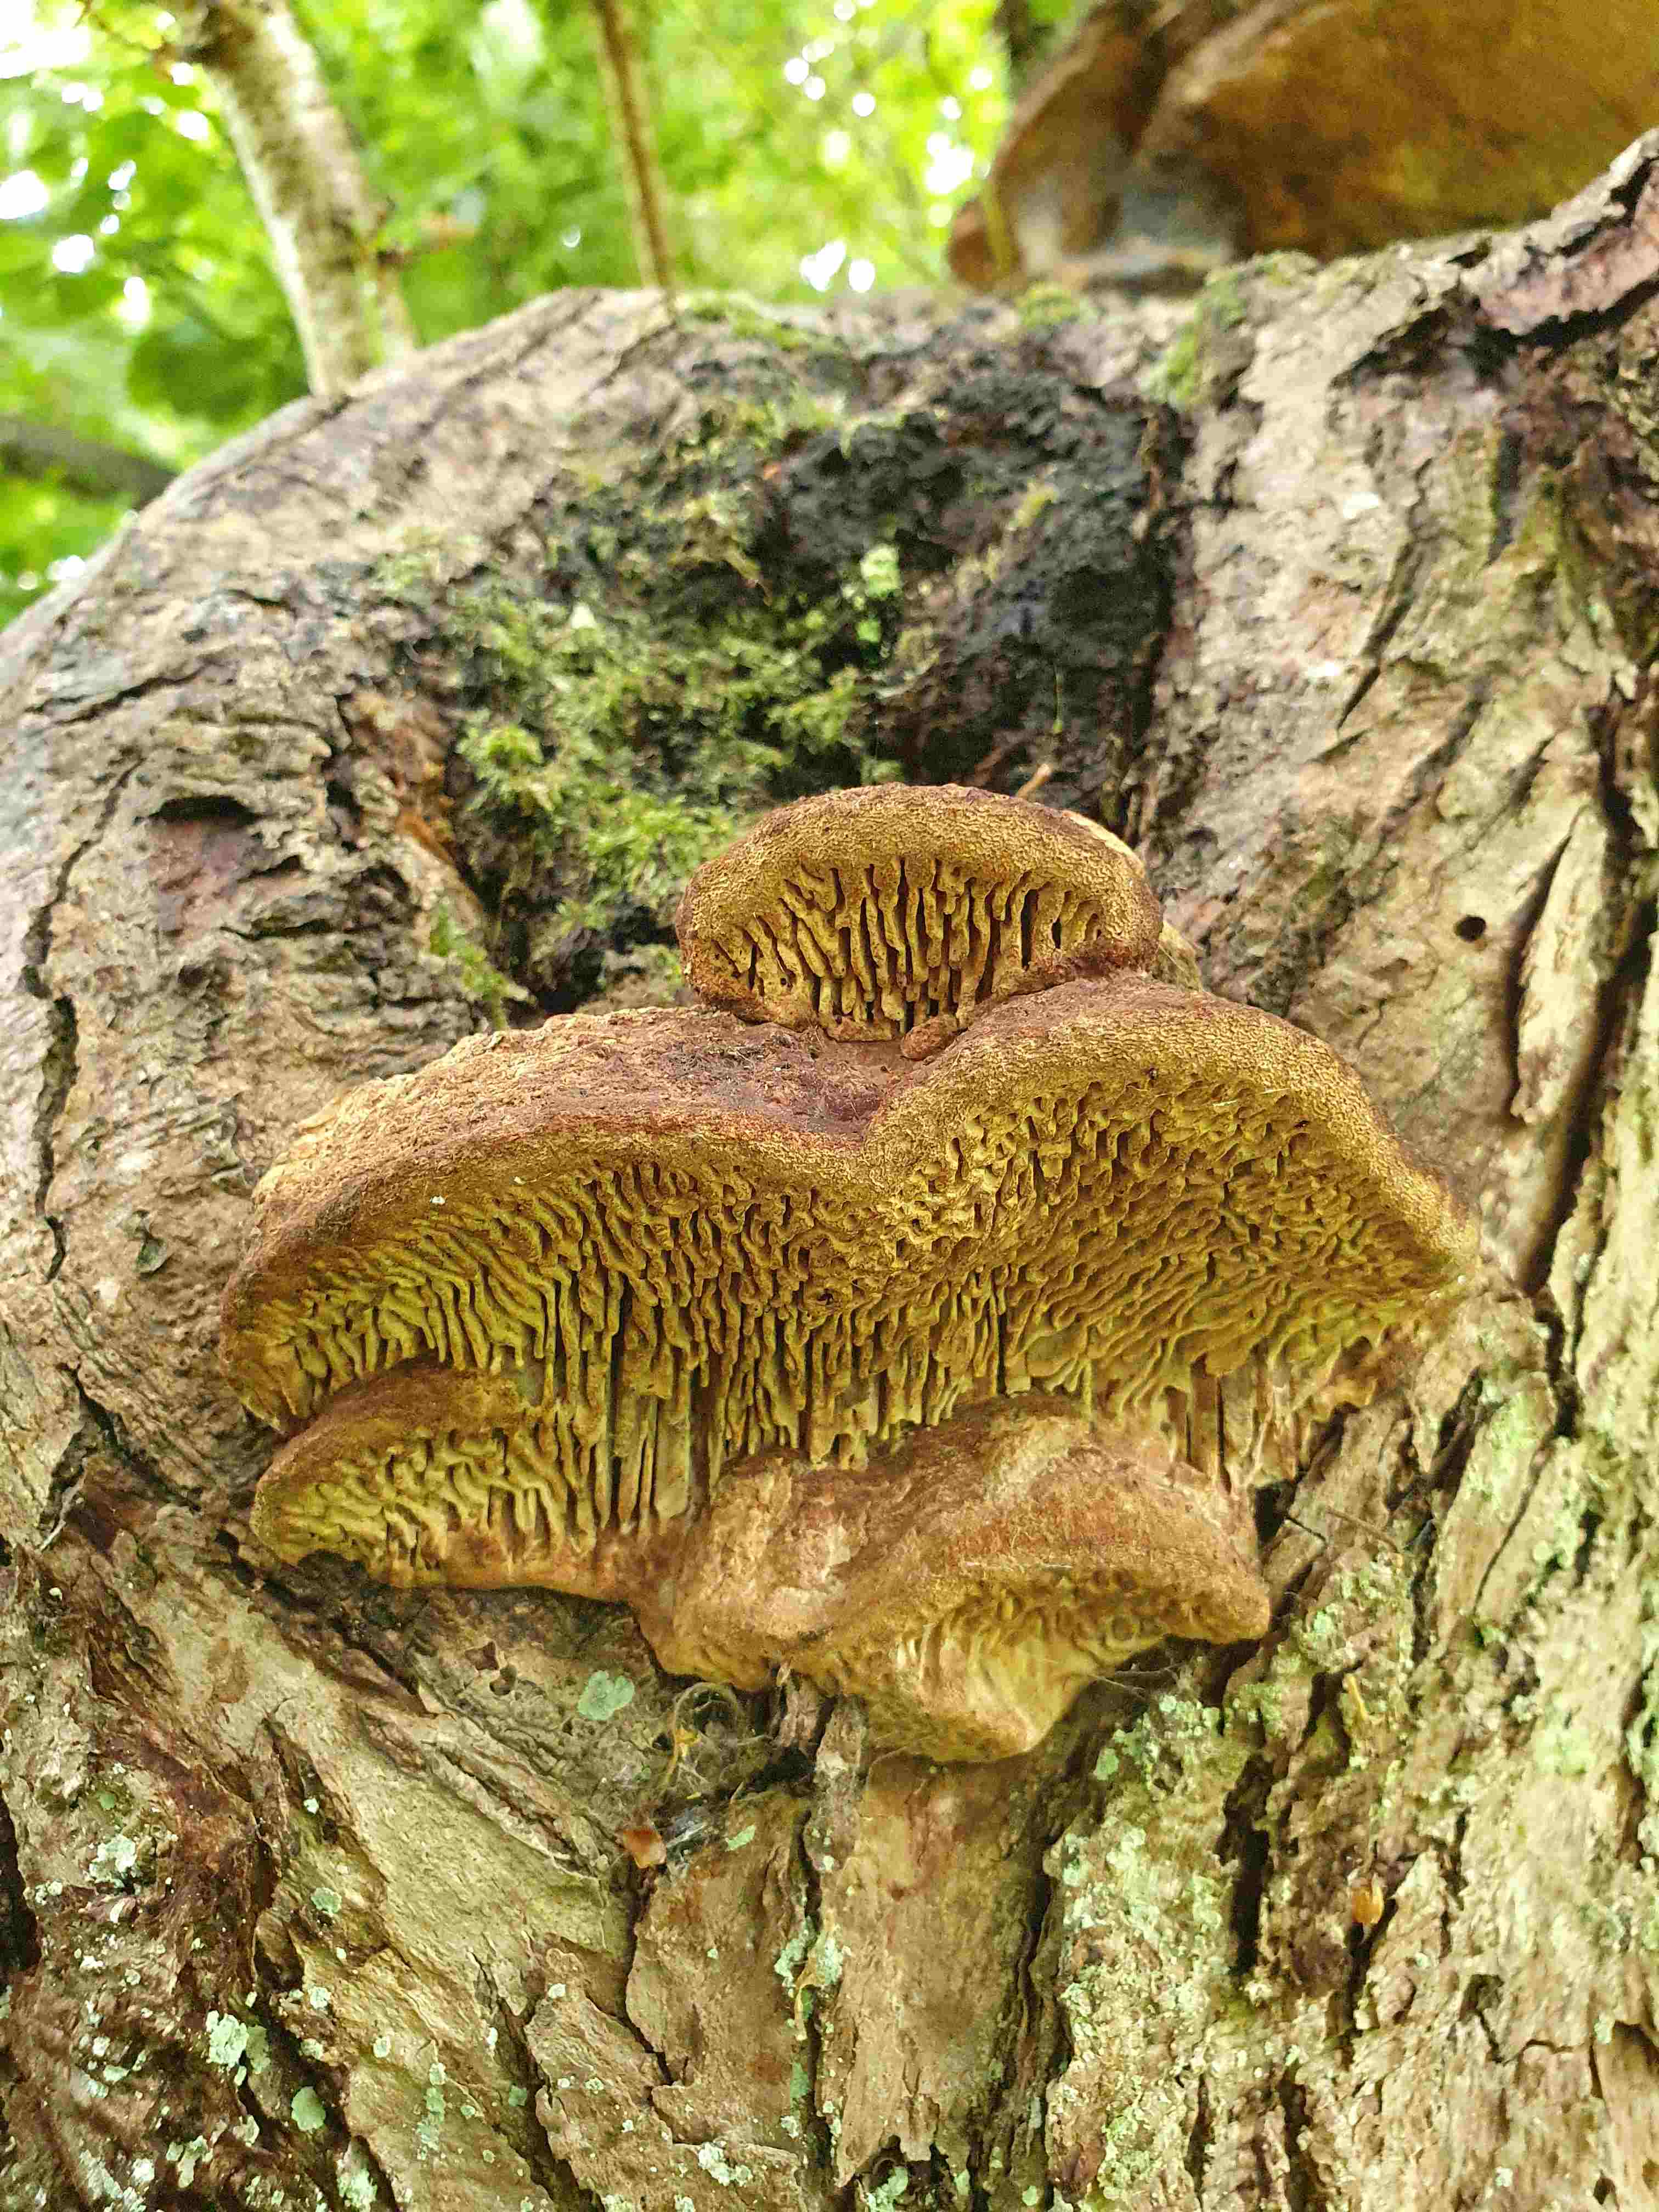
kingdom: Fungi
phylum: Basidiomycota
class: Agaricomycetes
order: Polyporales
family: Fomitopsidaceae
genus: Daedalea
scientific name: Daedalea quercina
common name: ege-labyrintsvamp
